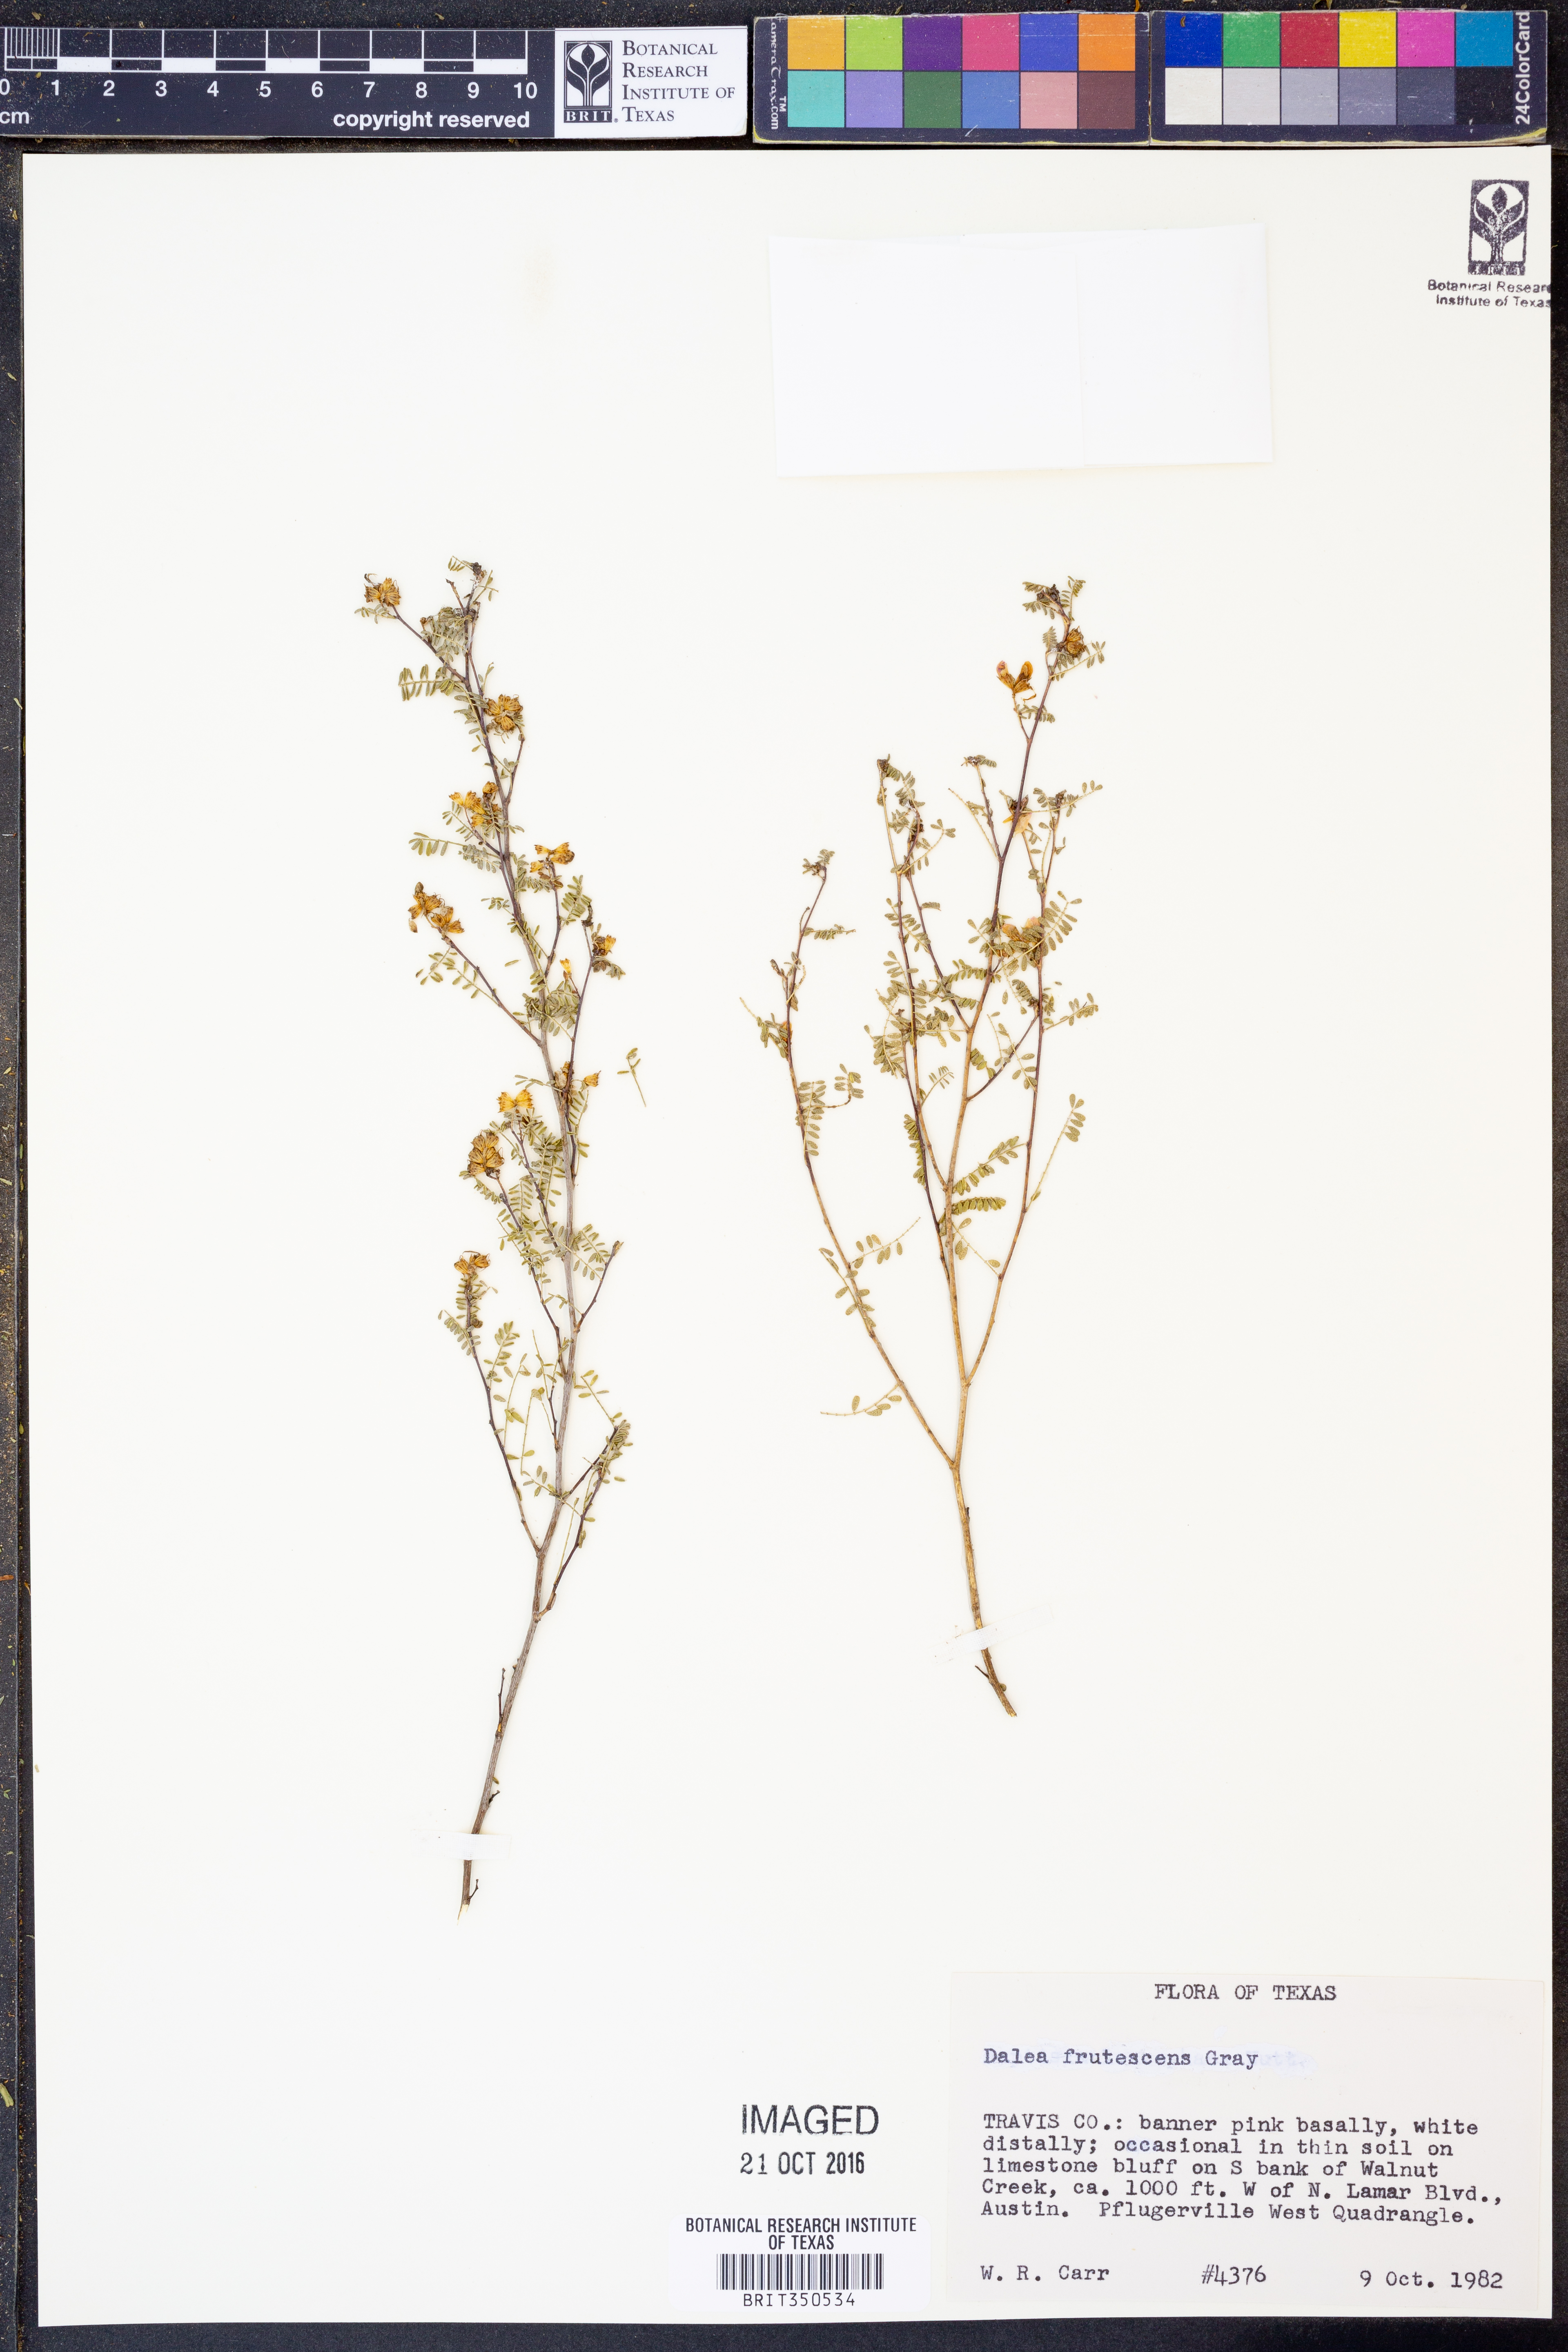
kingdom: Plantae
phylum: Tracheophyta
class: Magnoliopsida
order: Fabales
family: Fabaceae
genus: Dalea
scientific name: Dalea frutescens
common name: Black dalea
